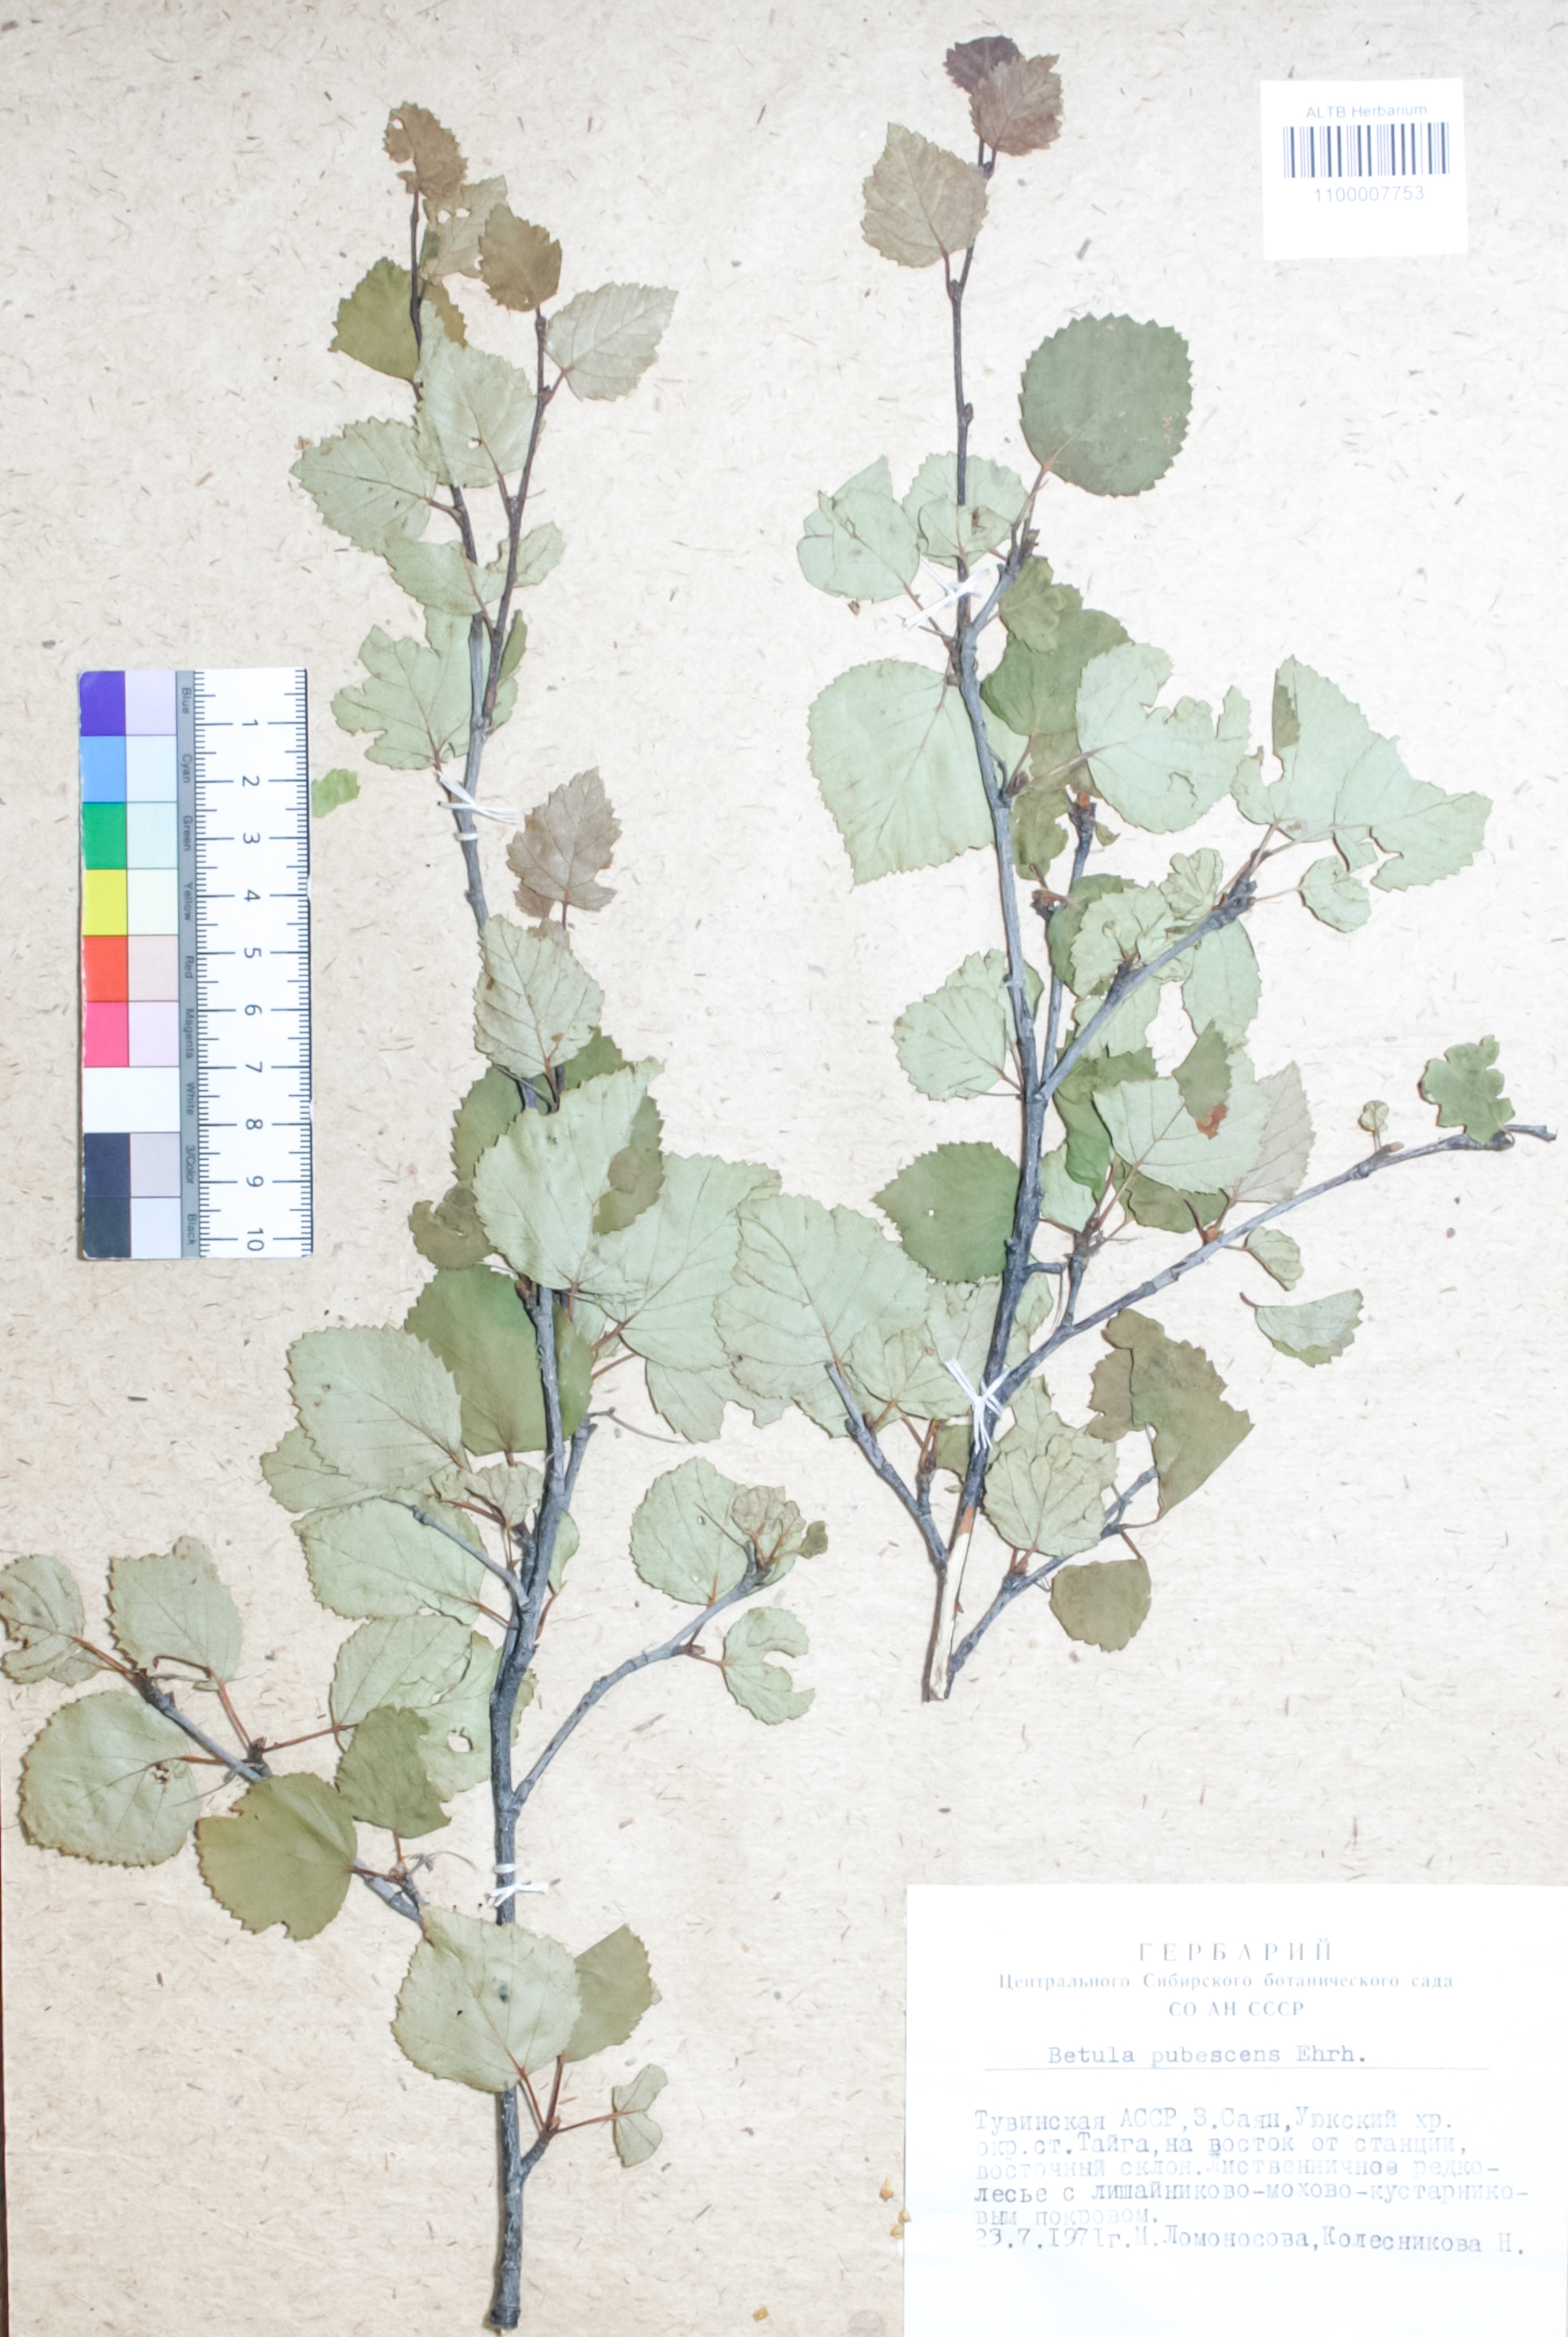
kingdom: Plantae
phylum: Tracheophyta
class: Magnoliopsida
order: Fagales
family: Betulaceae
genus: Betula
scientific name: Betula pubescens
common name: Downy birch
